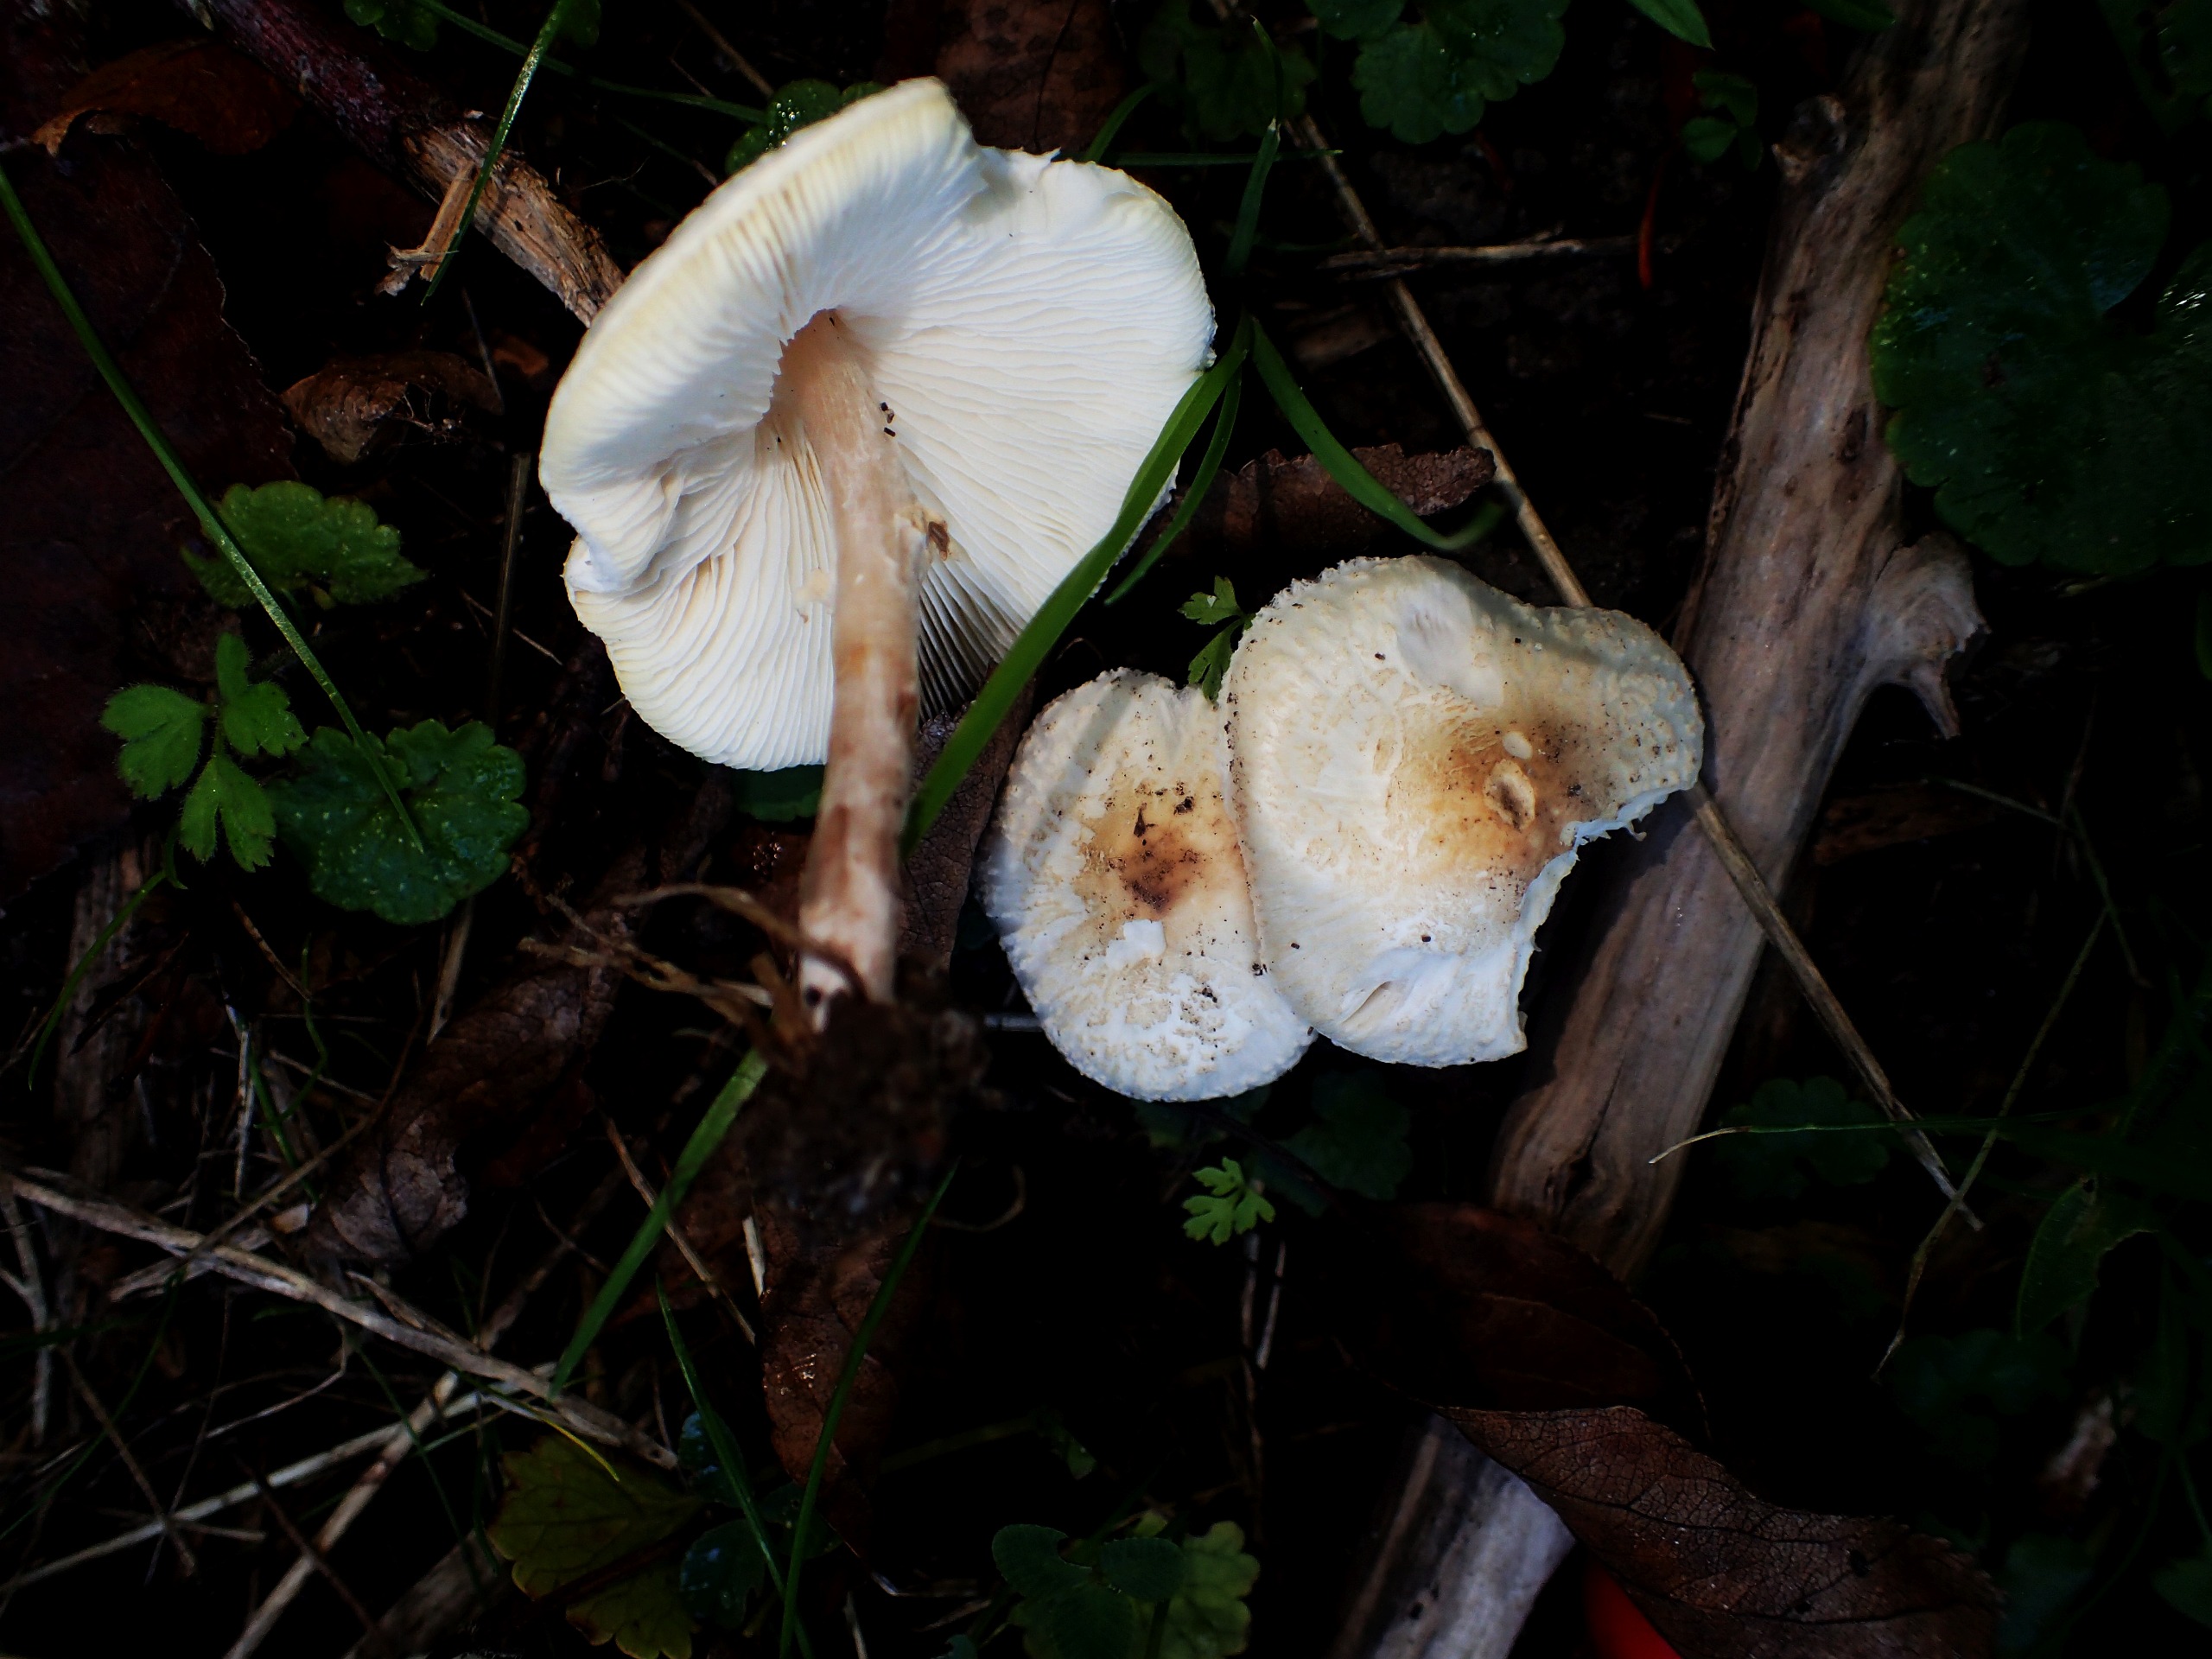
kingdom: Fungi
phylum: Basidiomycota
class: Agaricomycetes
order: Agaricales
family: Agaricaceae
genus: Lepiota
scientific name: Lepiota cristata
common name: Stinkende parasolhat
